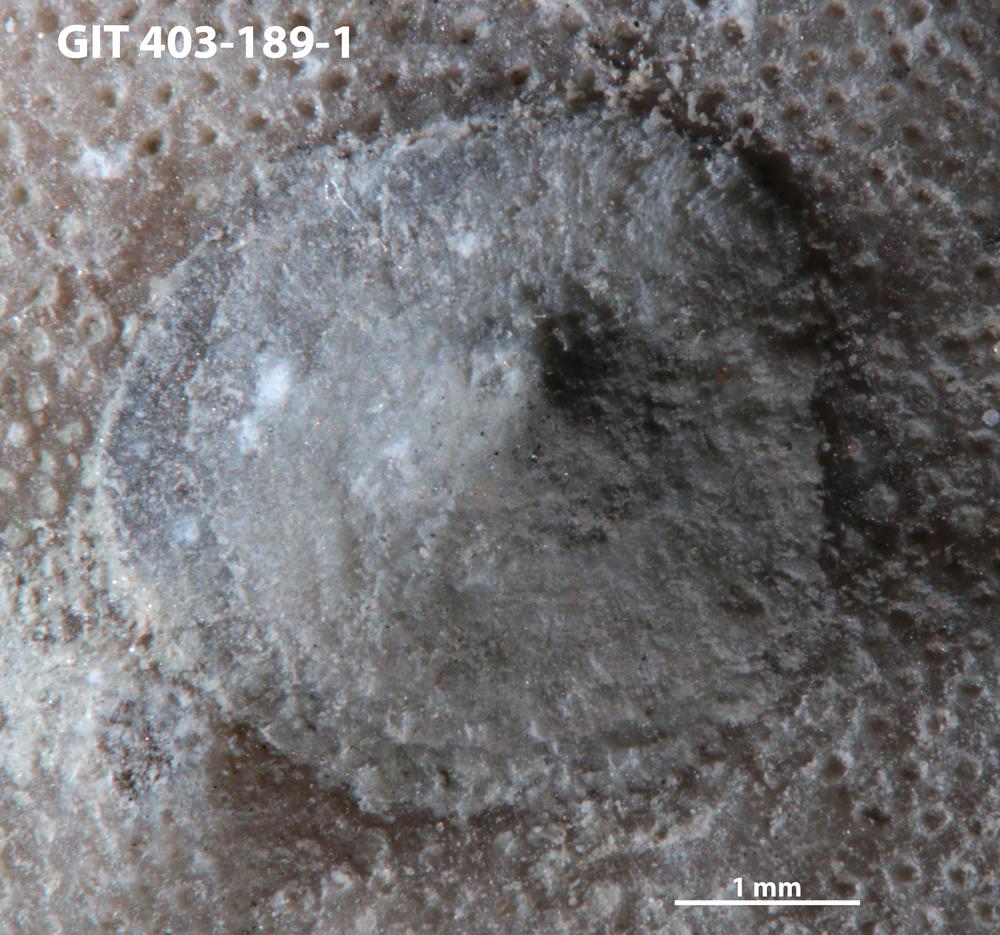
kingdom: Animalia
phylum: Brachiopoda
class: Craniata
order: Craniida
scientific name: Craniida
